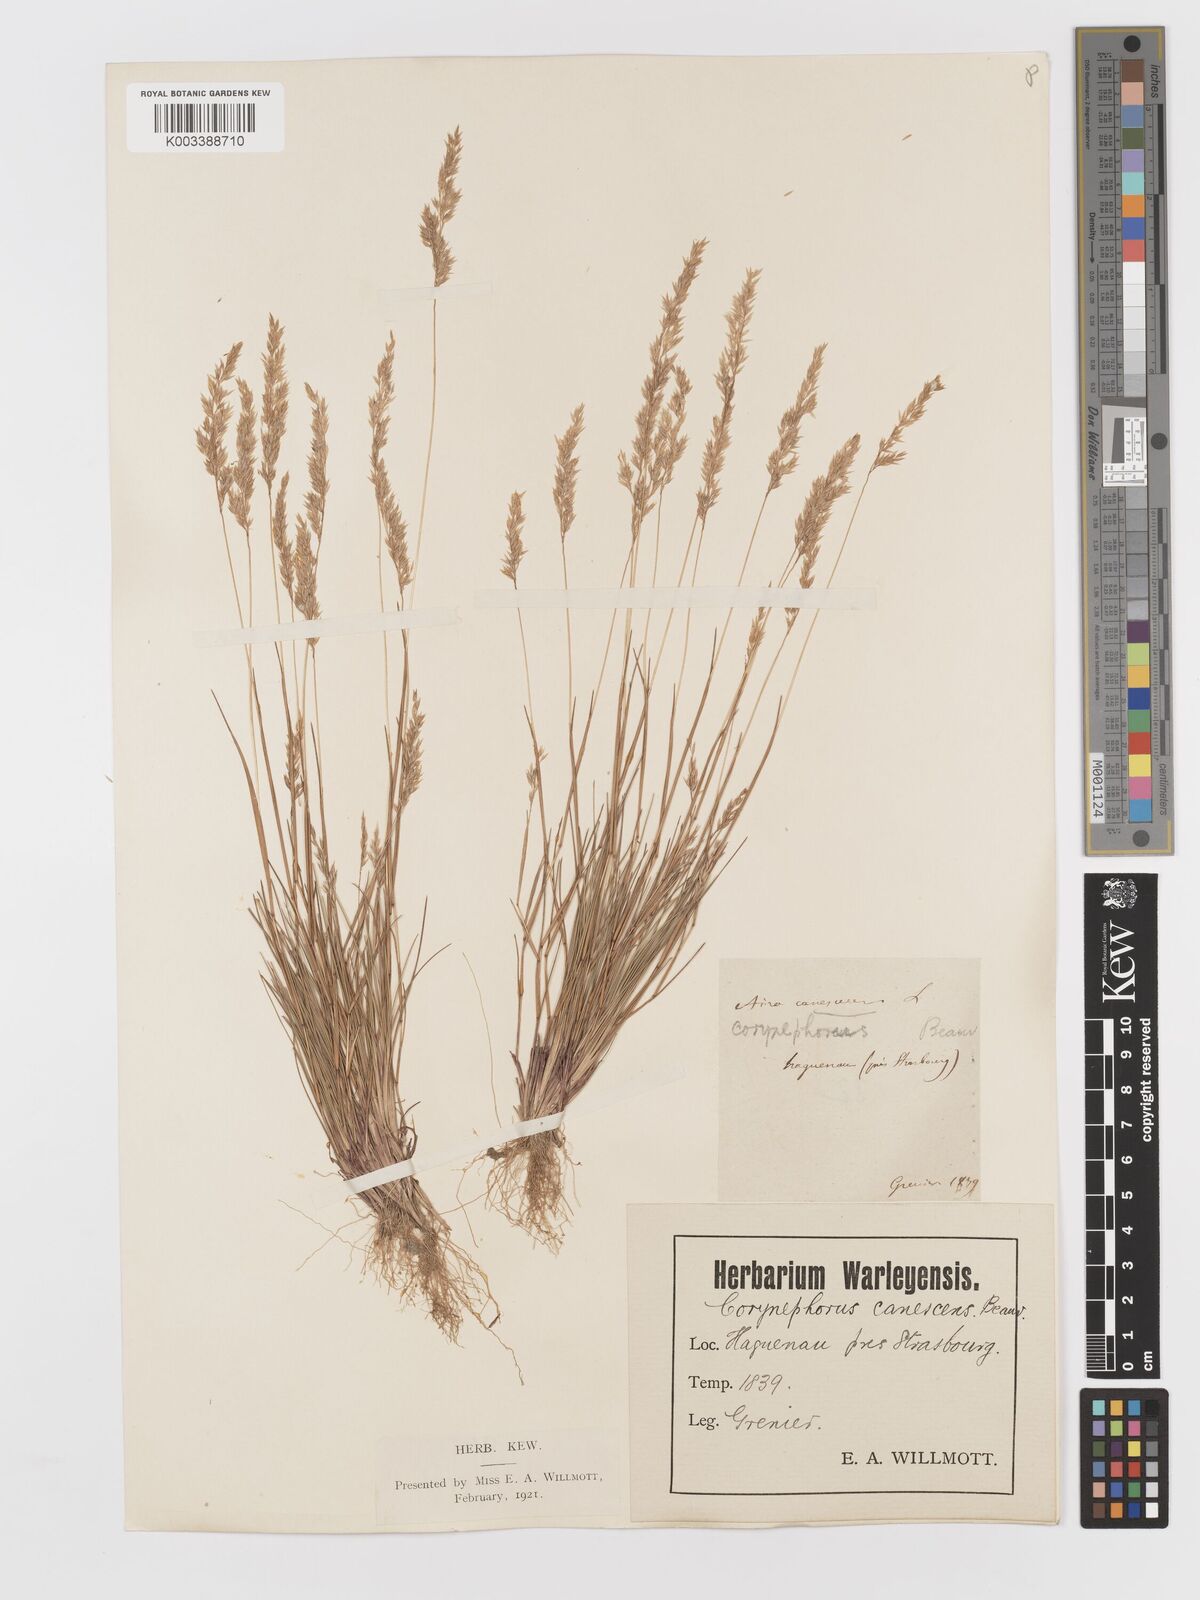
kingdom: Plantae
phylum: Tracheophyta
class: Liliopsida
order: Poales
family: Poaceae
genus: Corynephorus
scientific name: Corynephorus canescens
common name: Grey hair-grass
